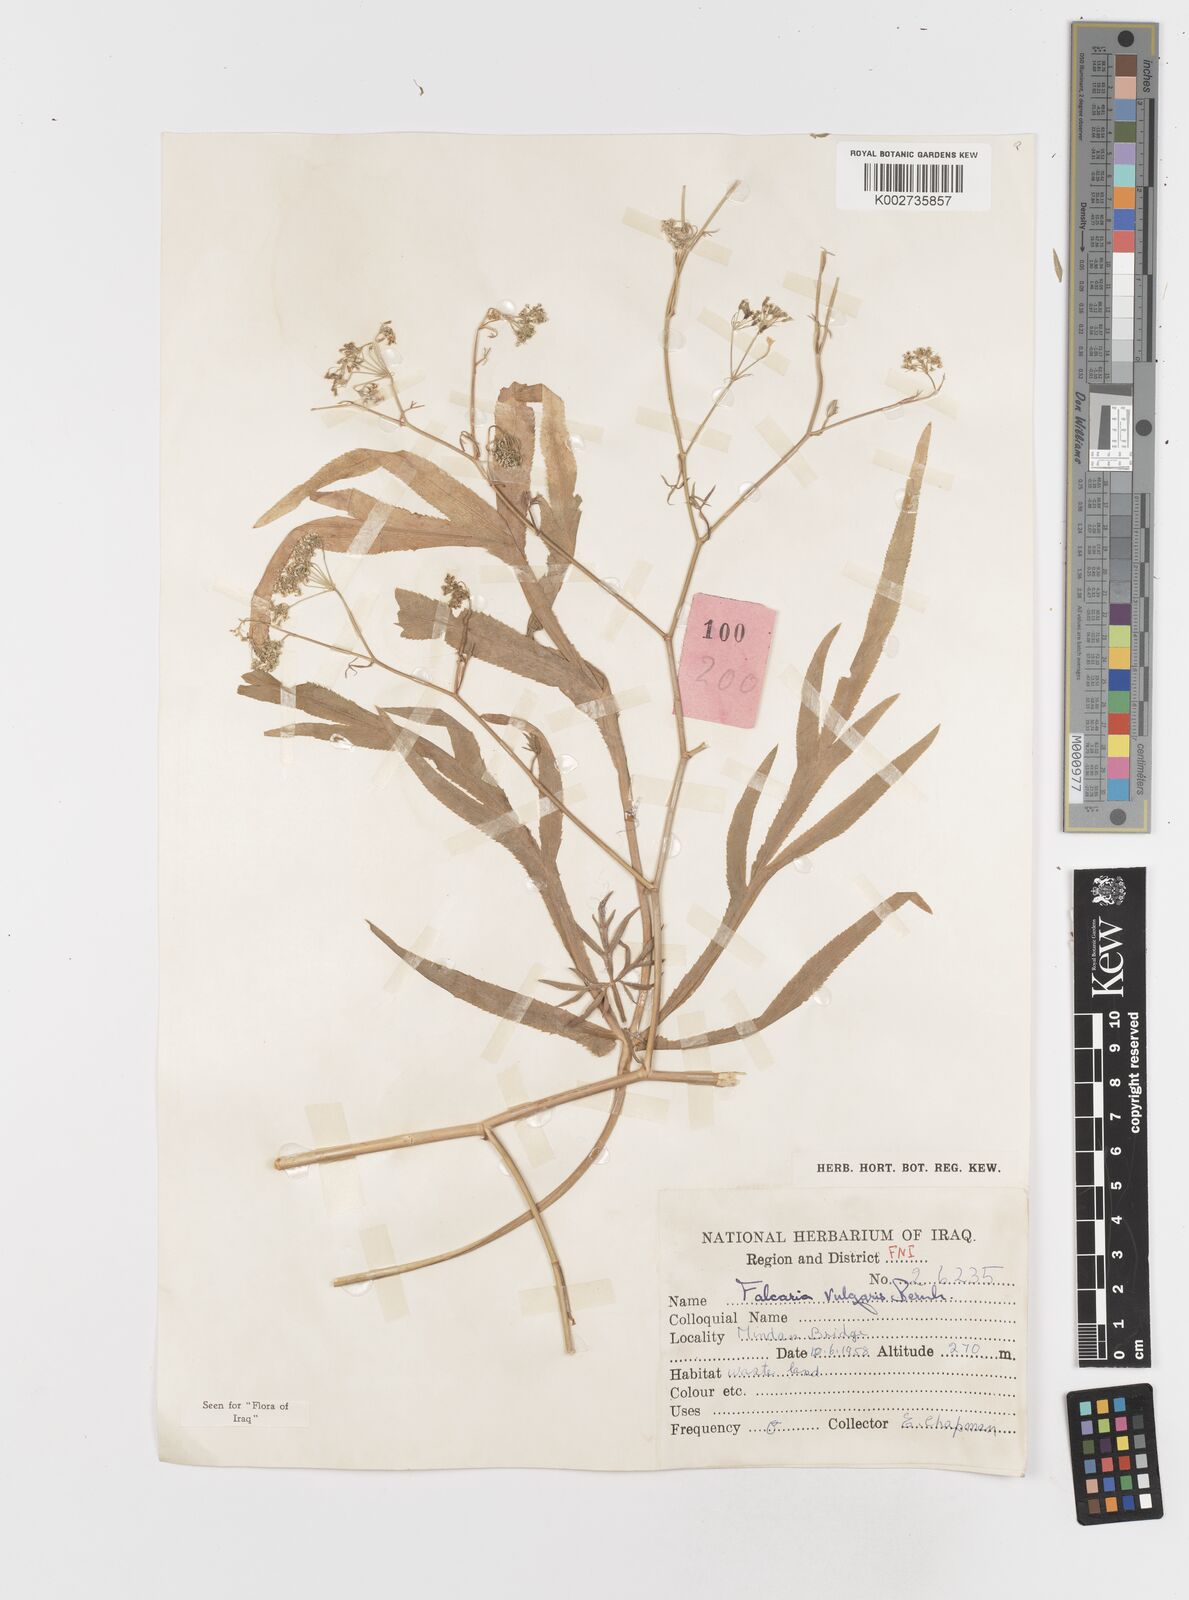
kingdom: Plantae
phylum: Tracheophyta
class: Magnoliopsida
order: Apiales
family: Apiaceae
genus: Falcaria
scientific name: Falcaria vulgaris
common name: Longleaf
